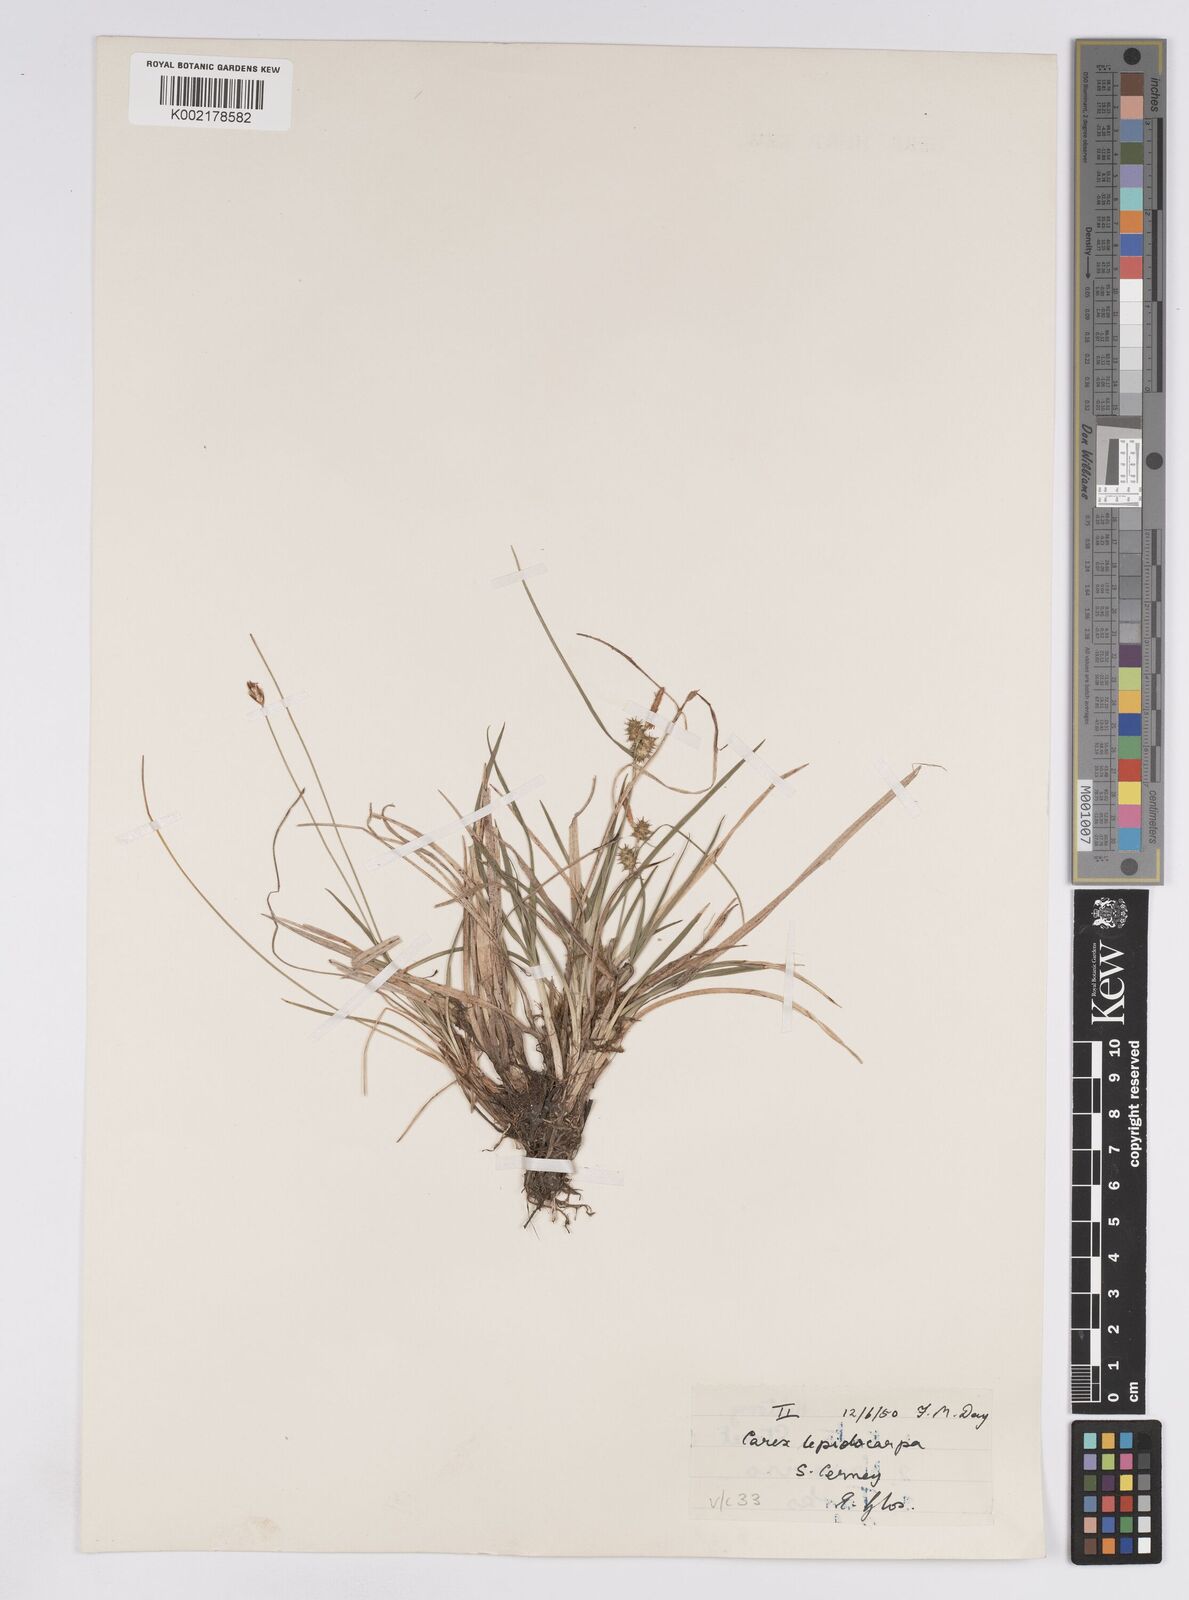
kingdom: Plantae
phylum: Tracheophyta
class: Liliopsida
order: Poales
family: Cyperaceae
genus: Carex
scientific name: Carex lepidocarpa
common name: Long-stalked yellow-sedge
